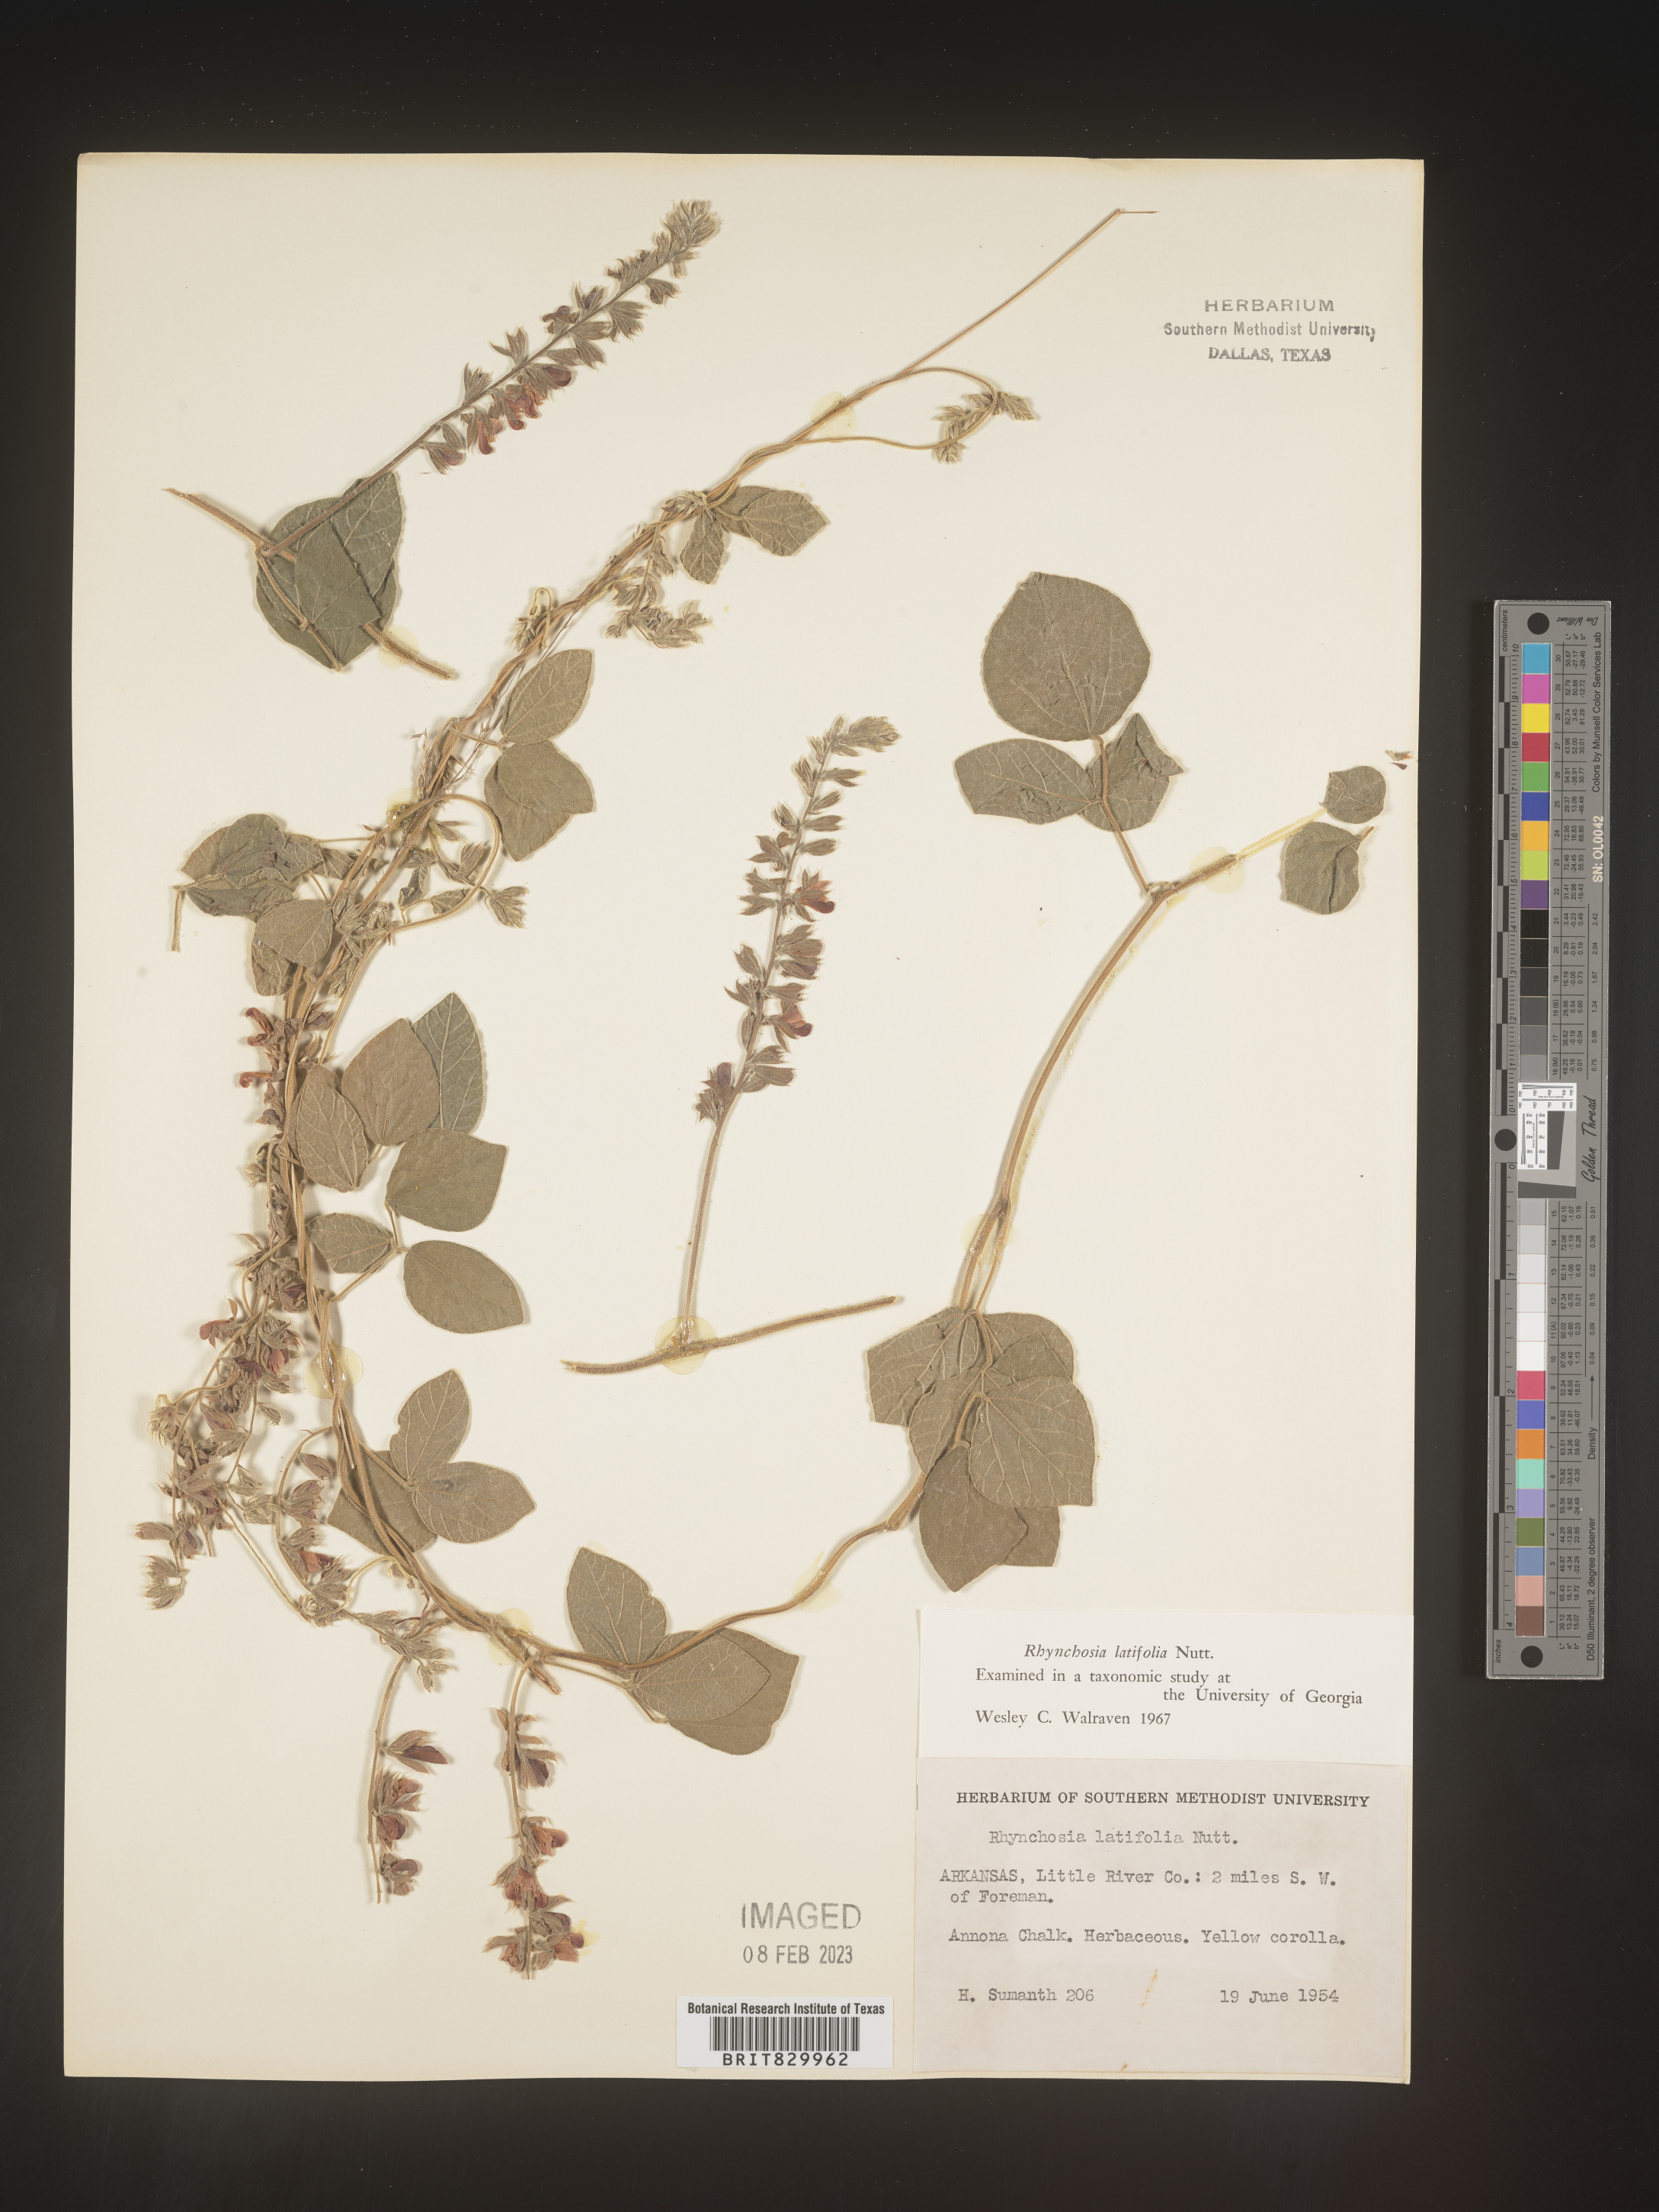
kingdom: Plantae
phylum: Tracheophyta
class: Magnoliopsida
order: Fabales
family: Fabaceae
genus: Rhynchosia
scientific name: Rhynchosia latifolia
